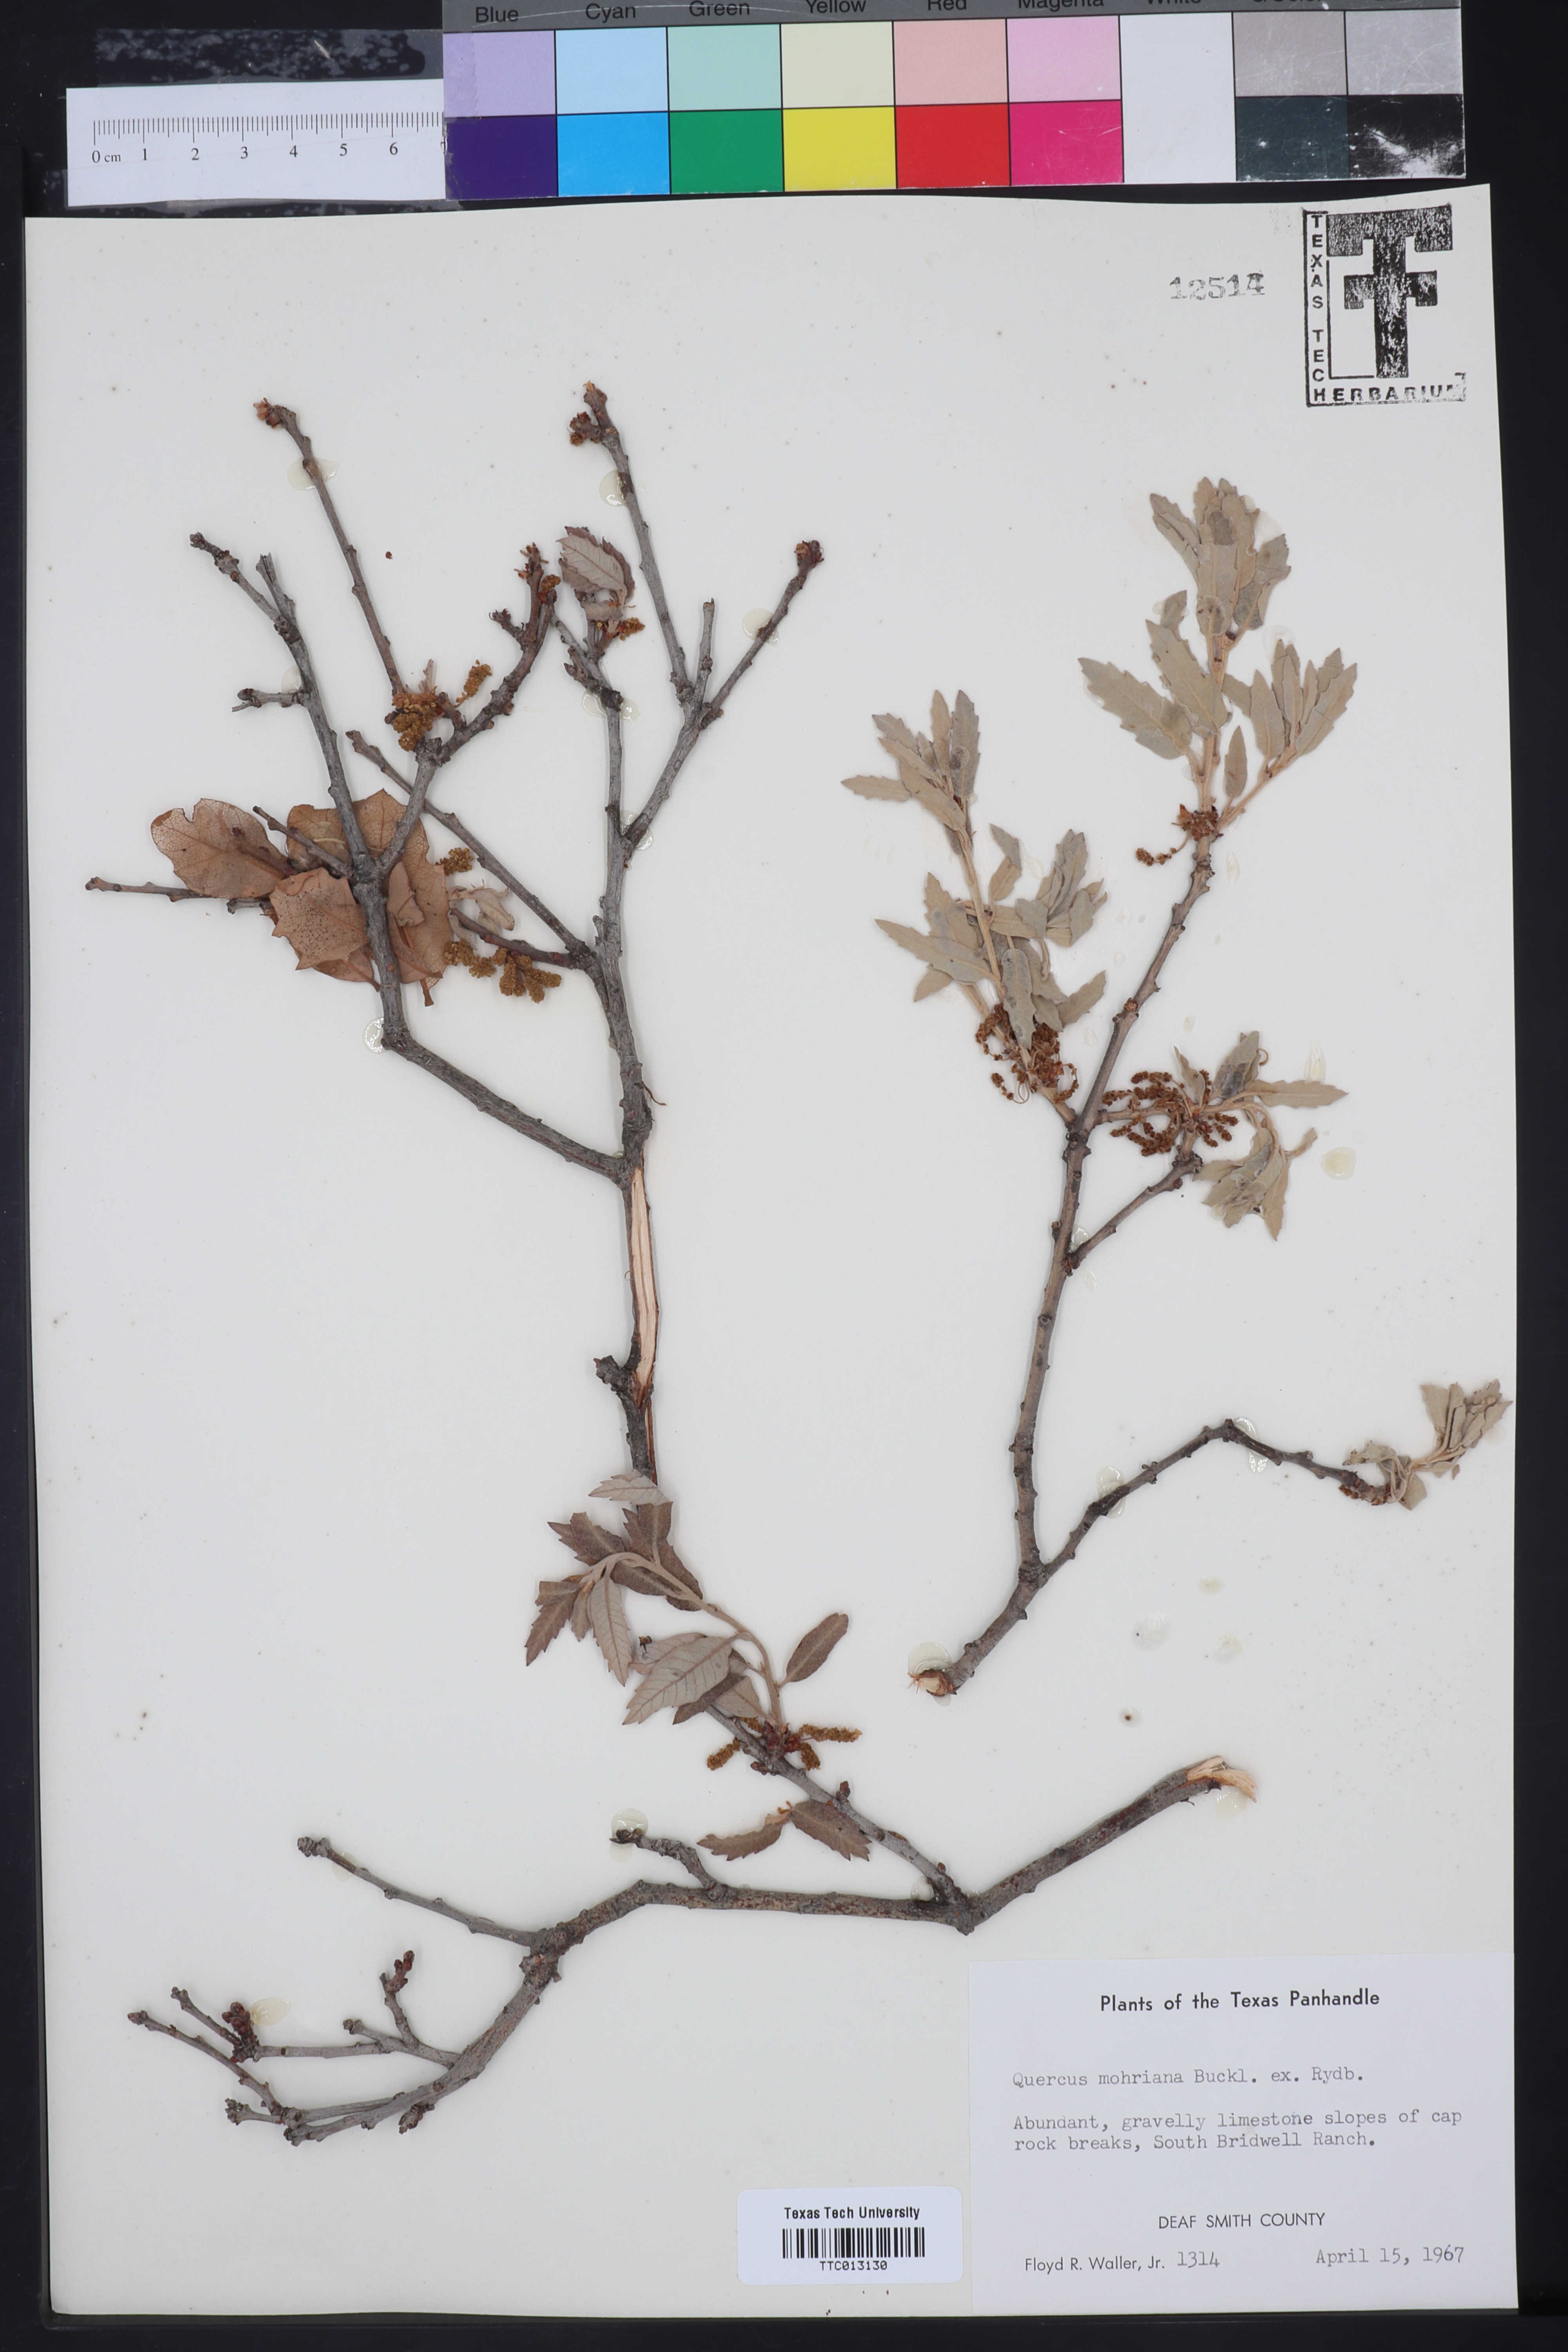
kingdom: Plantae
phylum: Tracheophyta
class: Magnoliopsida
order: Fagales
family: Fagaceae
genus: Quercus
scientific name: Quercus mohriana
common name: Mohr oak
